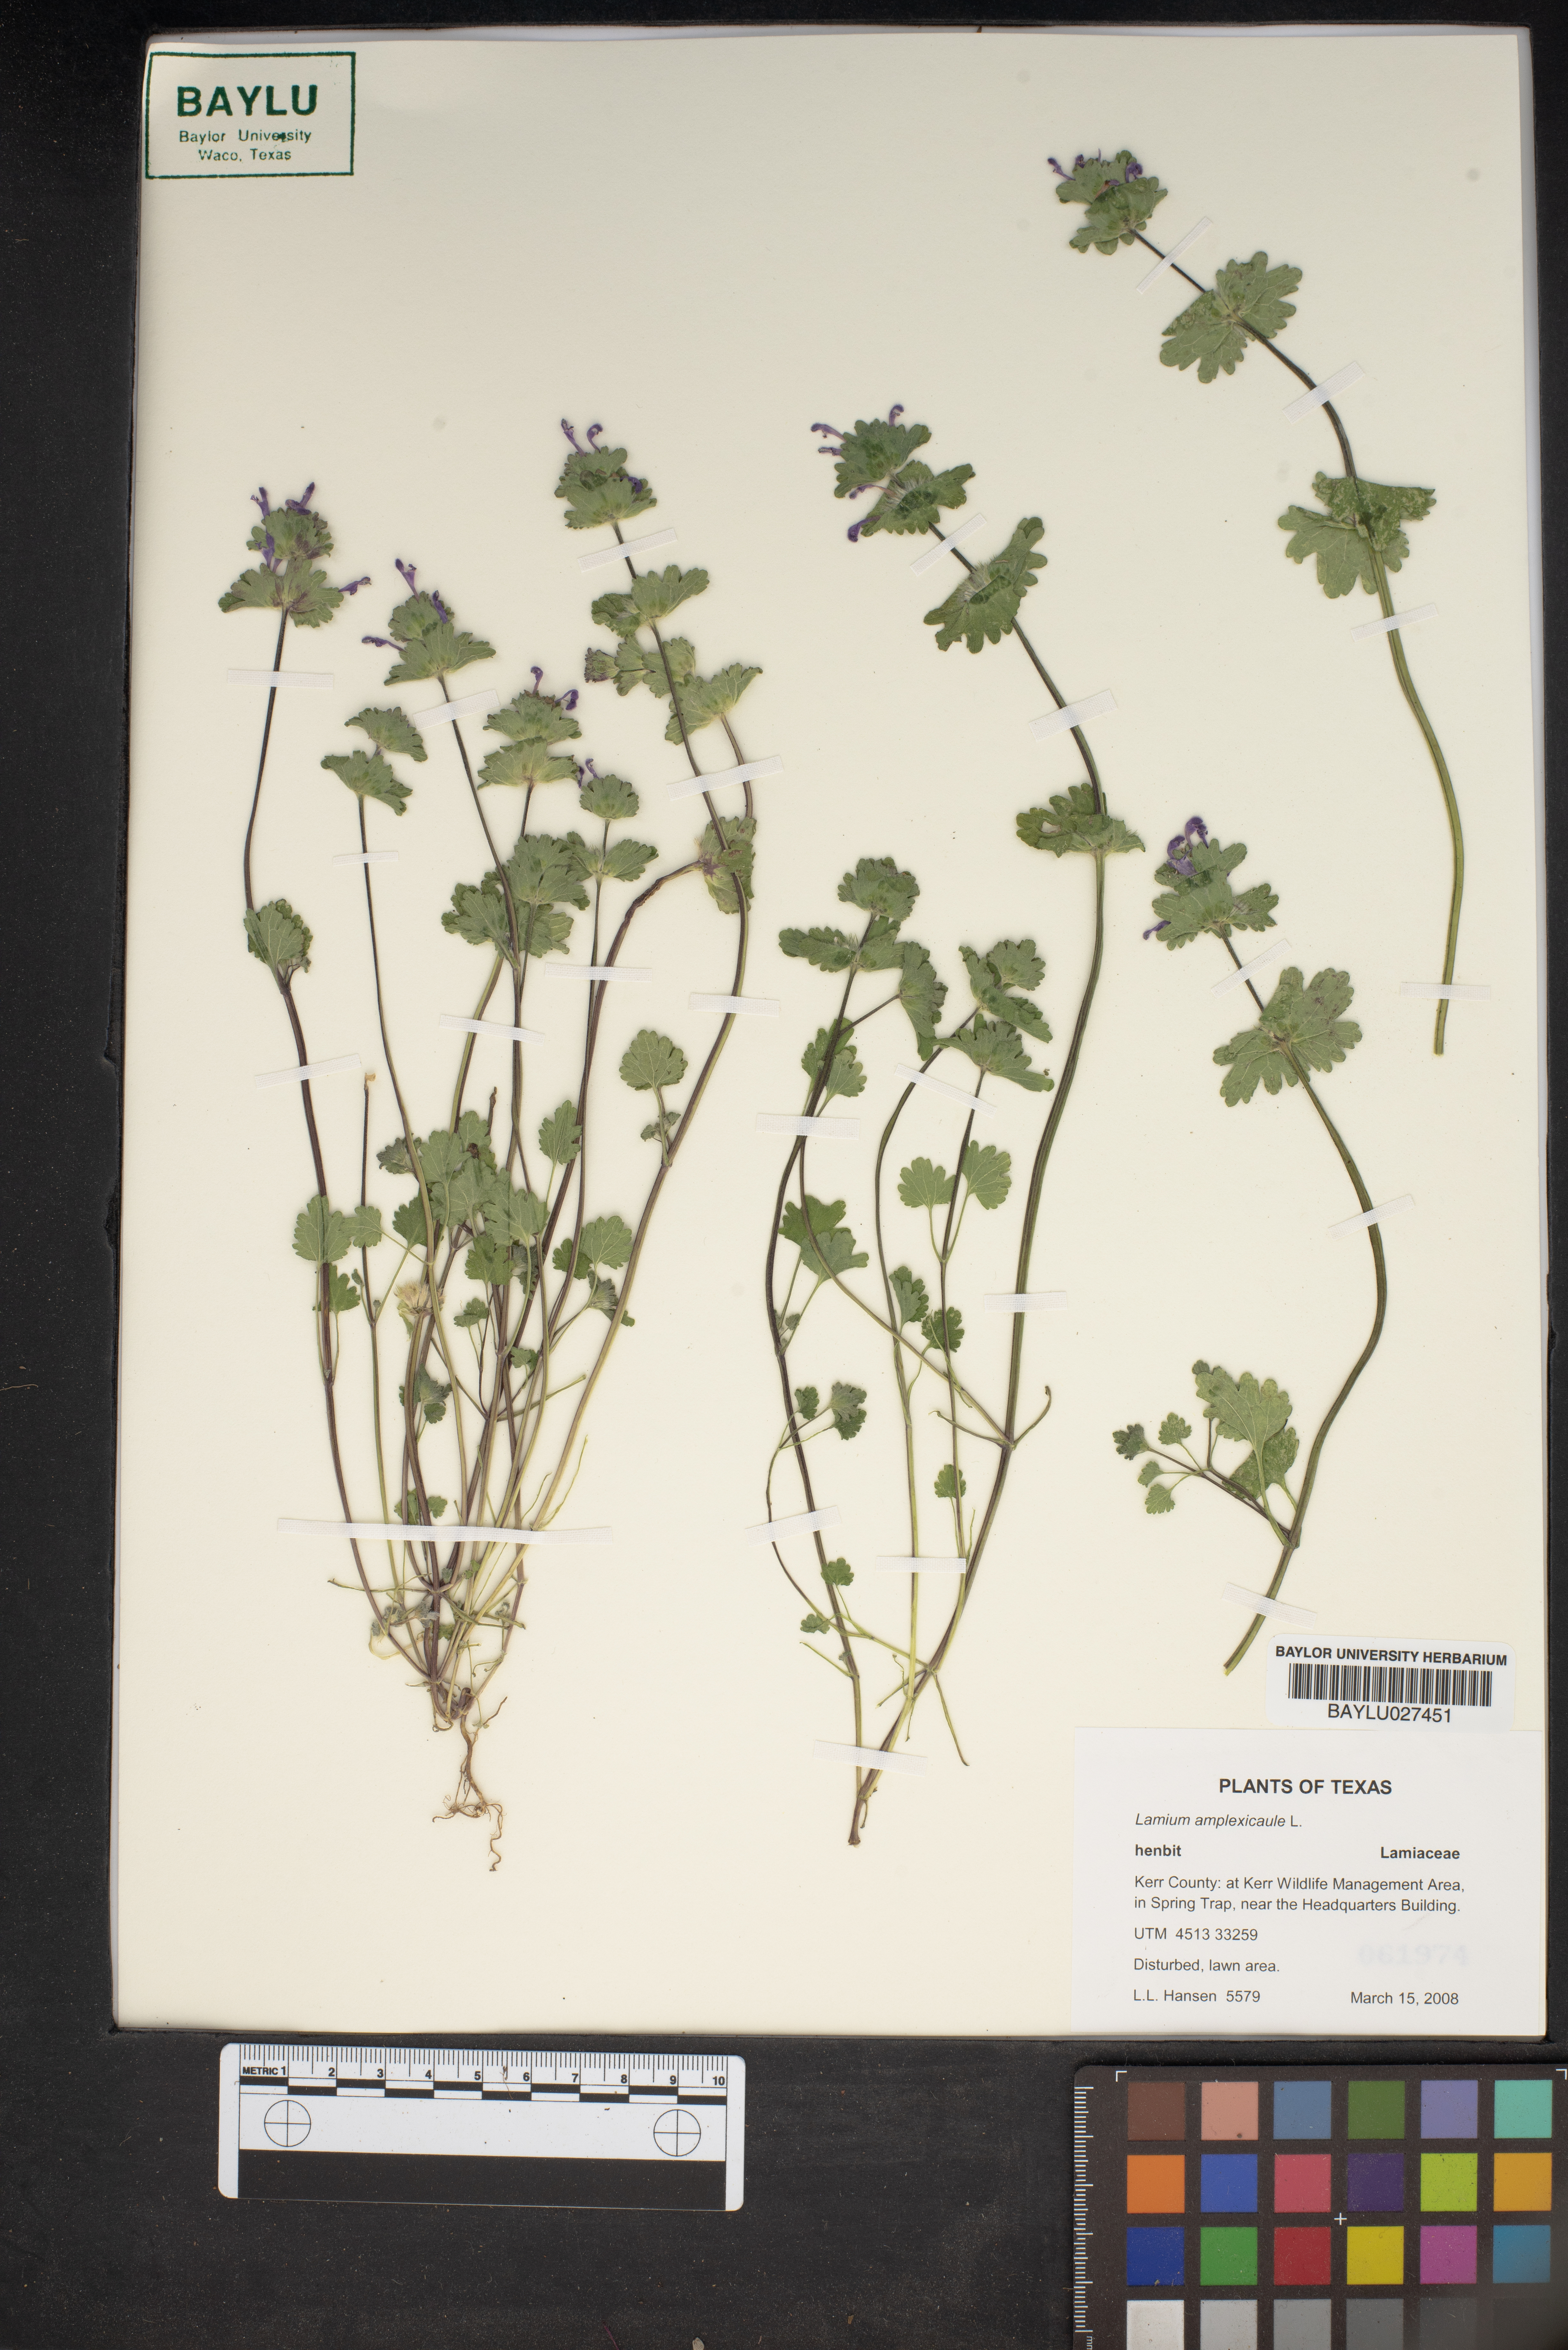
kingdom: Plantae
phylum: Tracheophyta
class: Magnoliopsida
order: Lamiales
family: Lamiaceae
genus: Lamium
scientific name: Lamium amplexicaule
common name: Henbit dead-nettle
